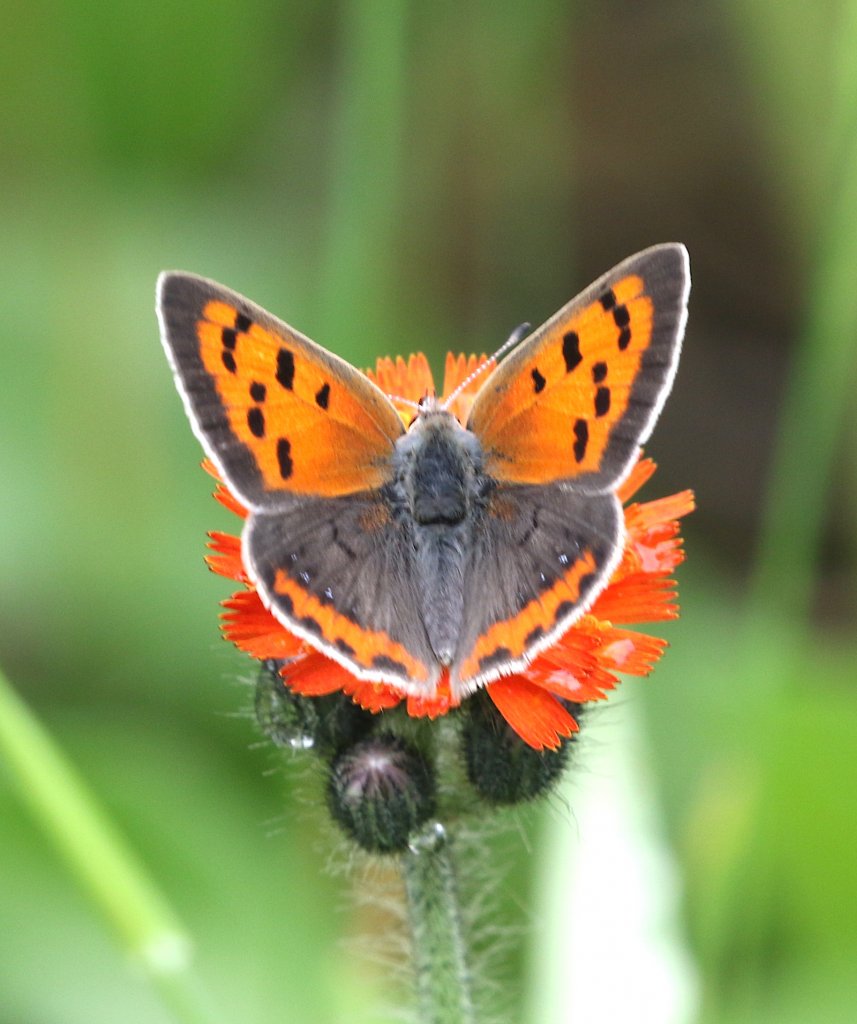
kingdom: Animalia
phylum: Arthropoda
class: Insecta
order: Lepidoptera
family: Lycaenidae
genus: Lycaena
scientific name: Lycaena phlaeas
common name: American Copper
